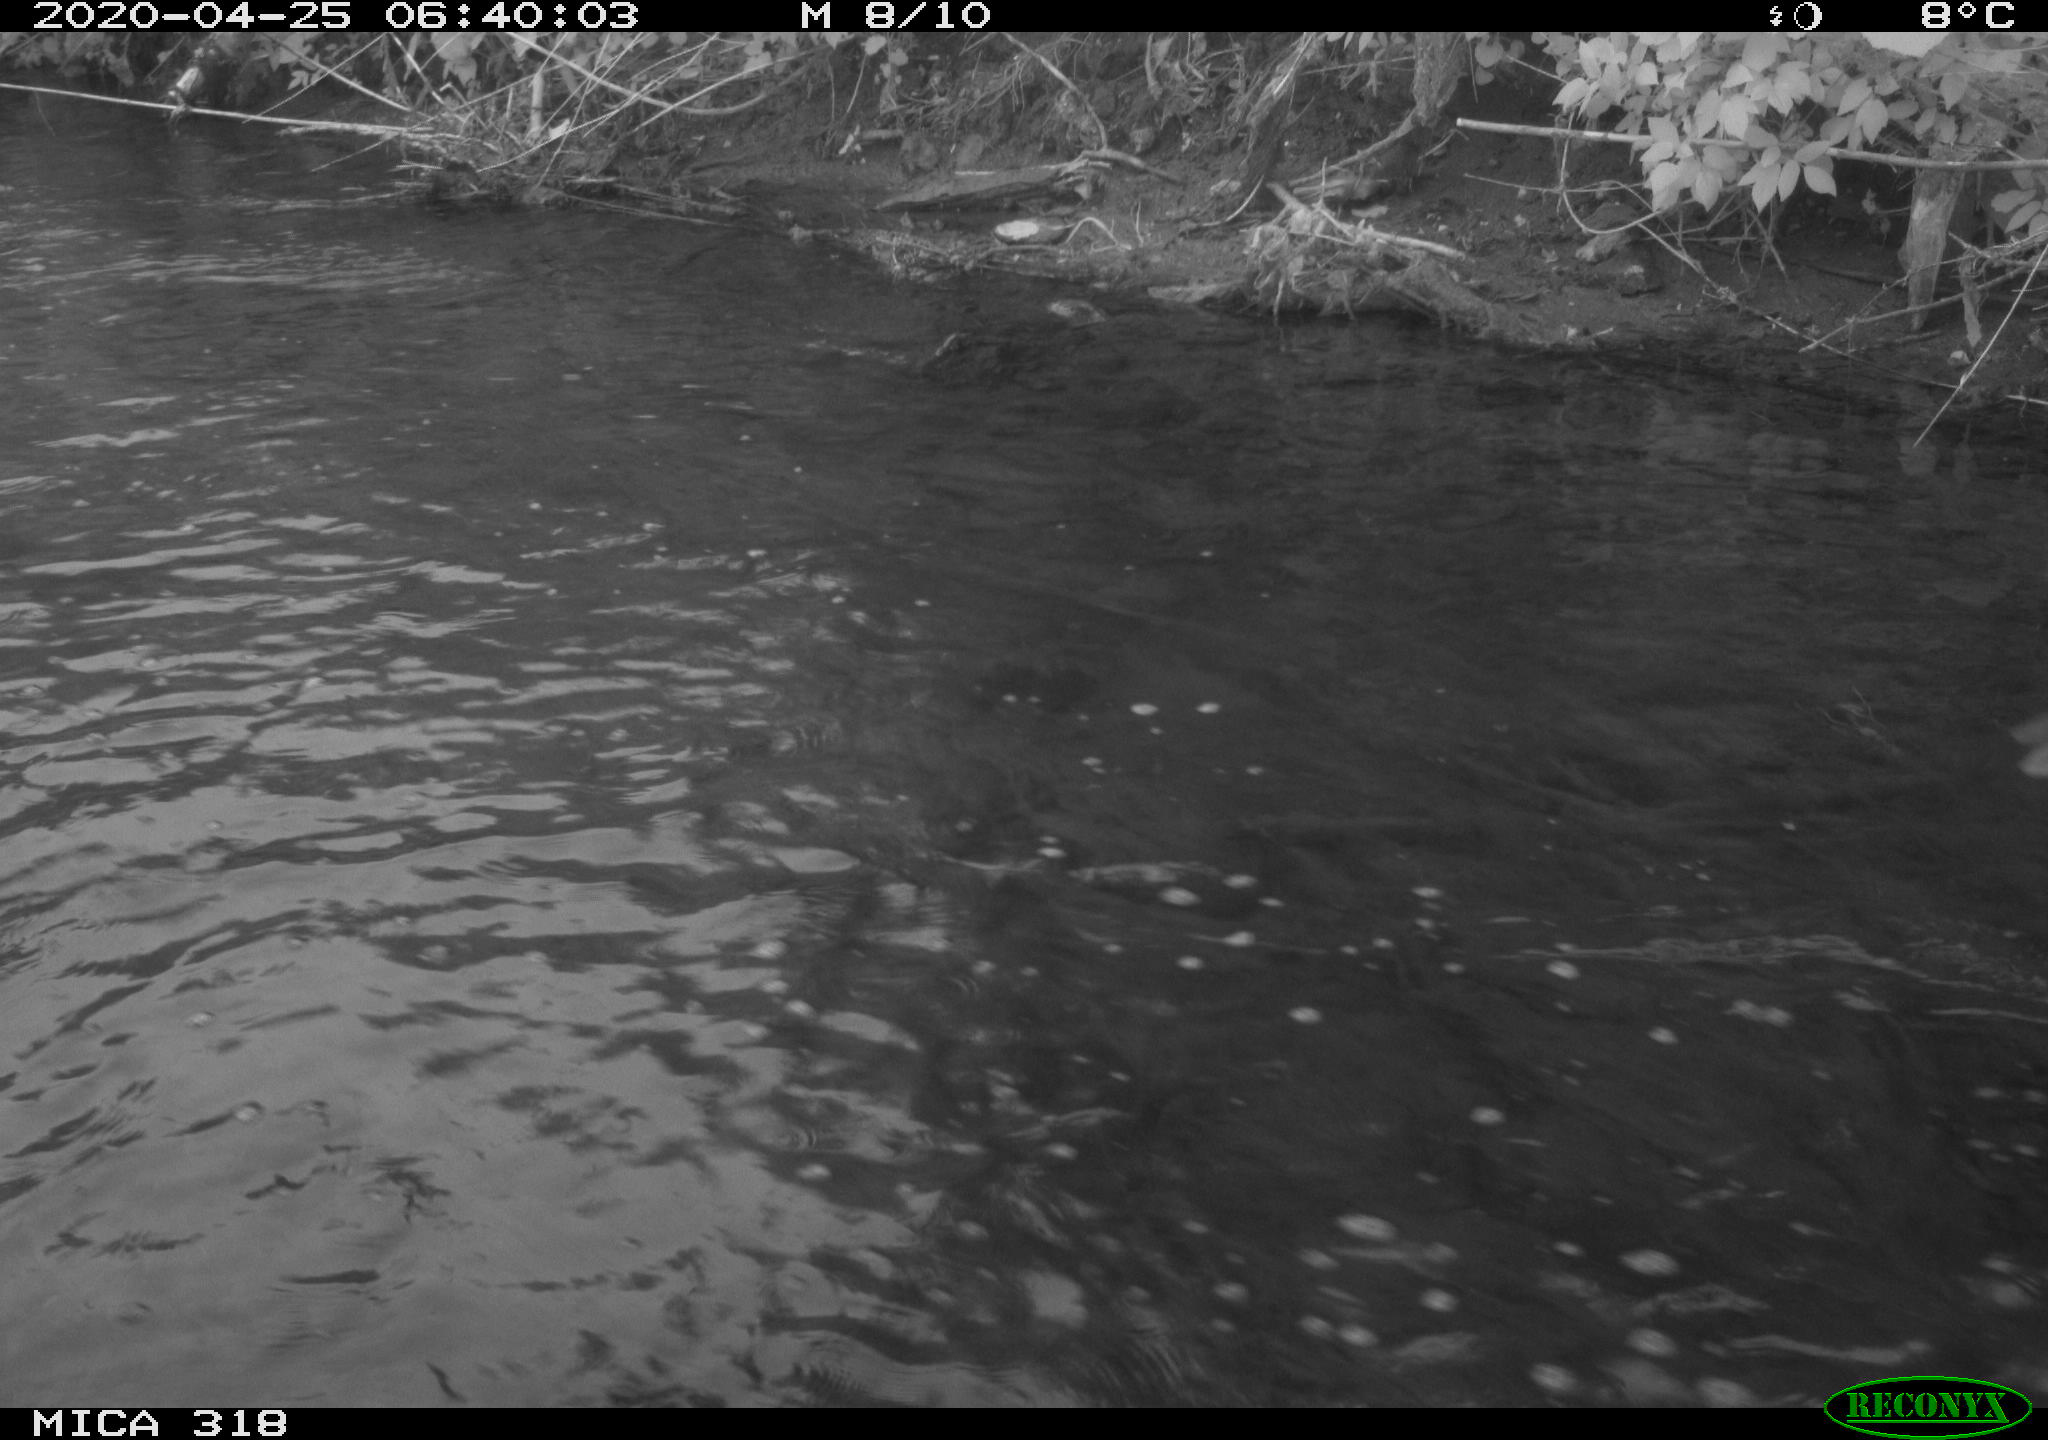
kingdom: Animalia
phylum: Chordata
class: Aves
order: Pelecaniformes
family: Ardeidae
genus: Ardea
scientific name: Ardea cinerea
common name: Grey heron
